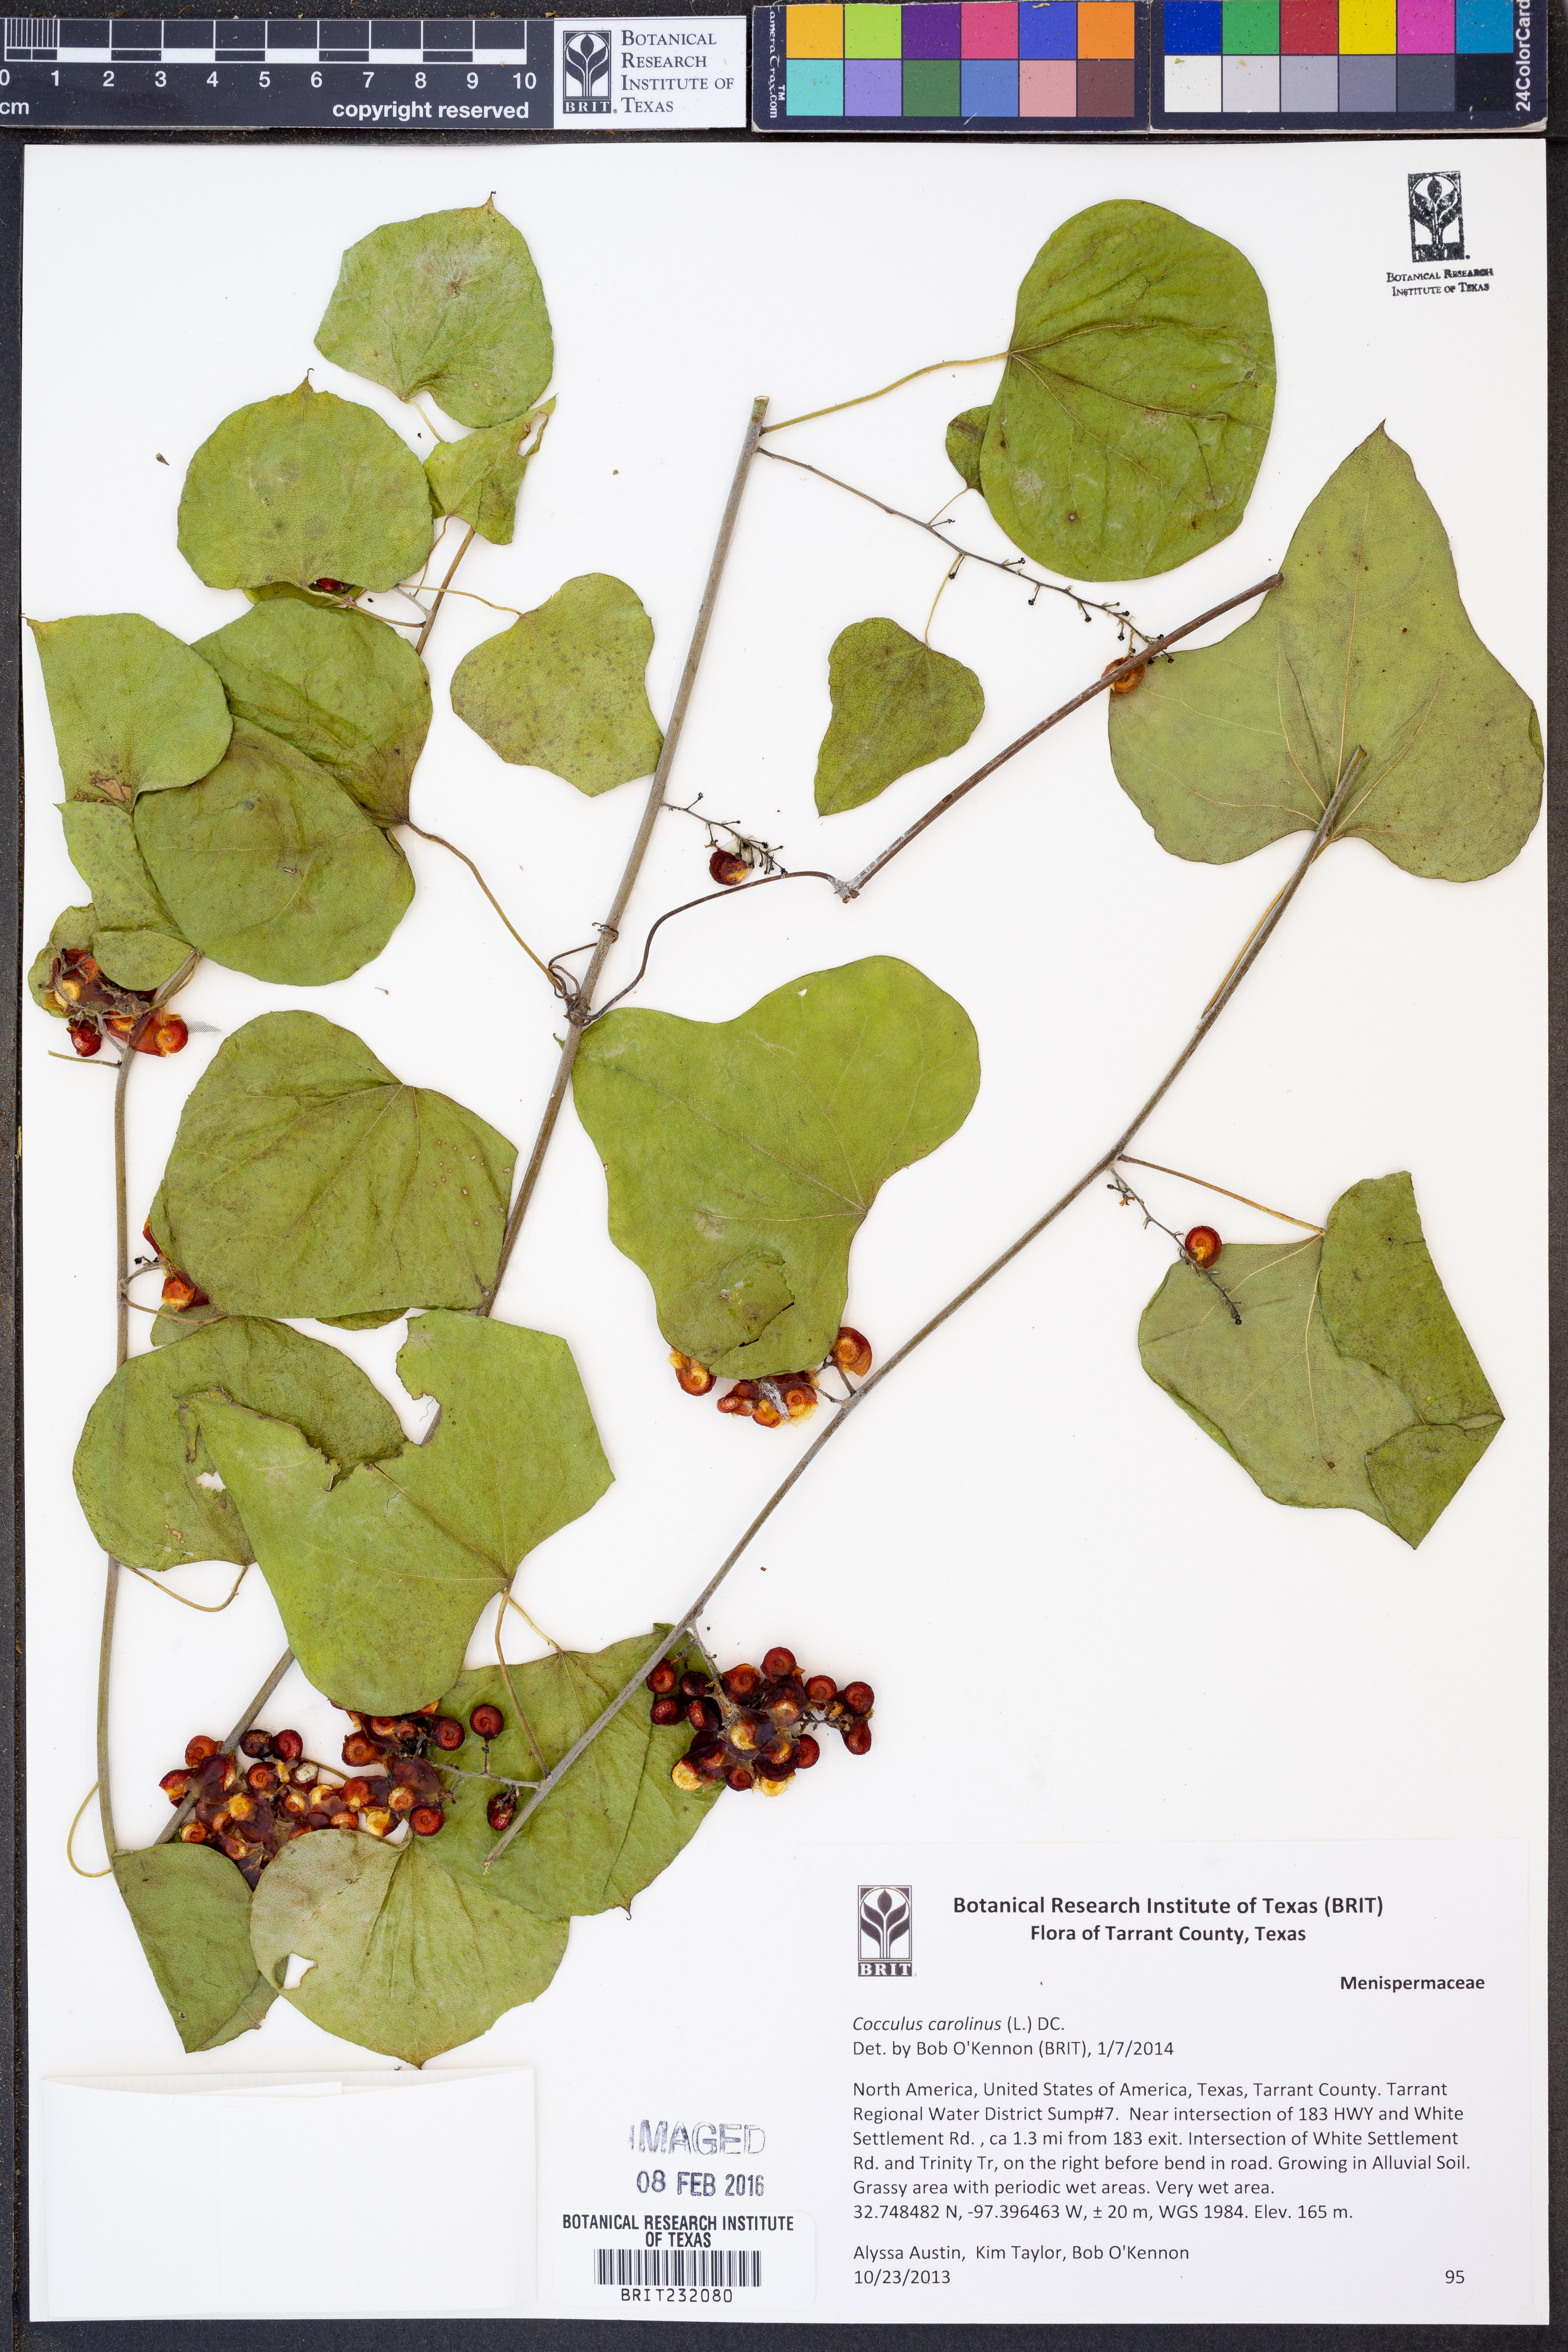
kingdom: Plantae
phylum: Tracheophyta
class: Magnoliopsida
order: Ranunculales
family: Menispermaceae
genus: Cocculus
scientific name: Cocculus carolinus
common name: Carolina moonseed
